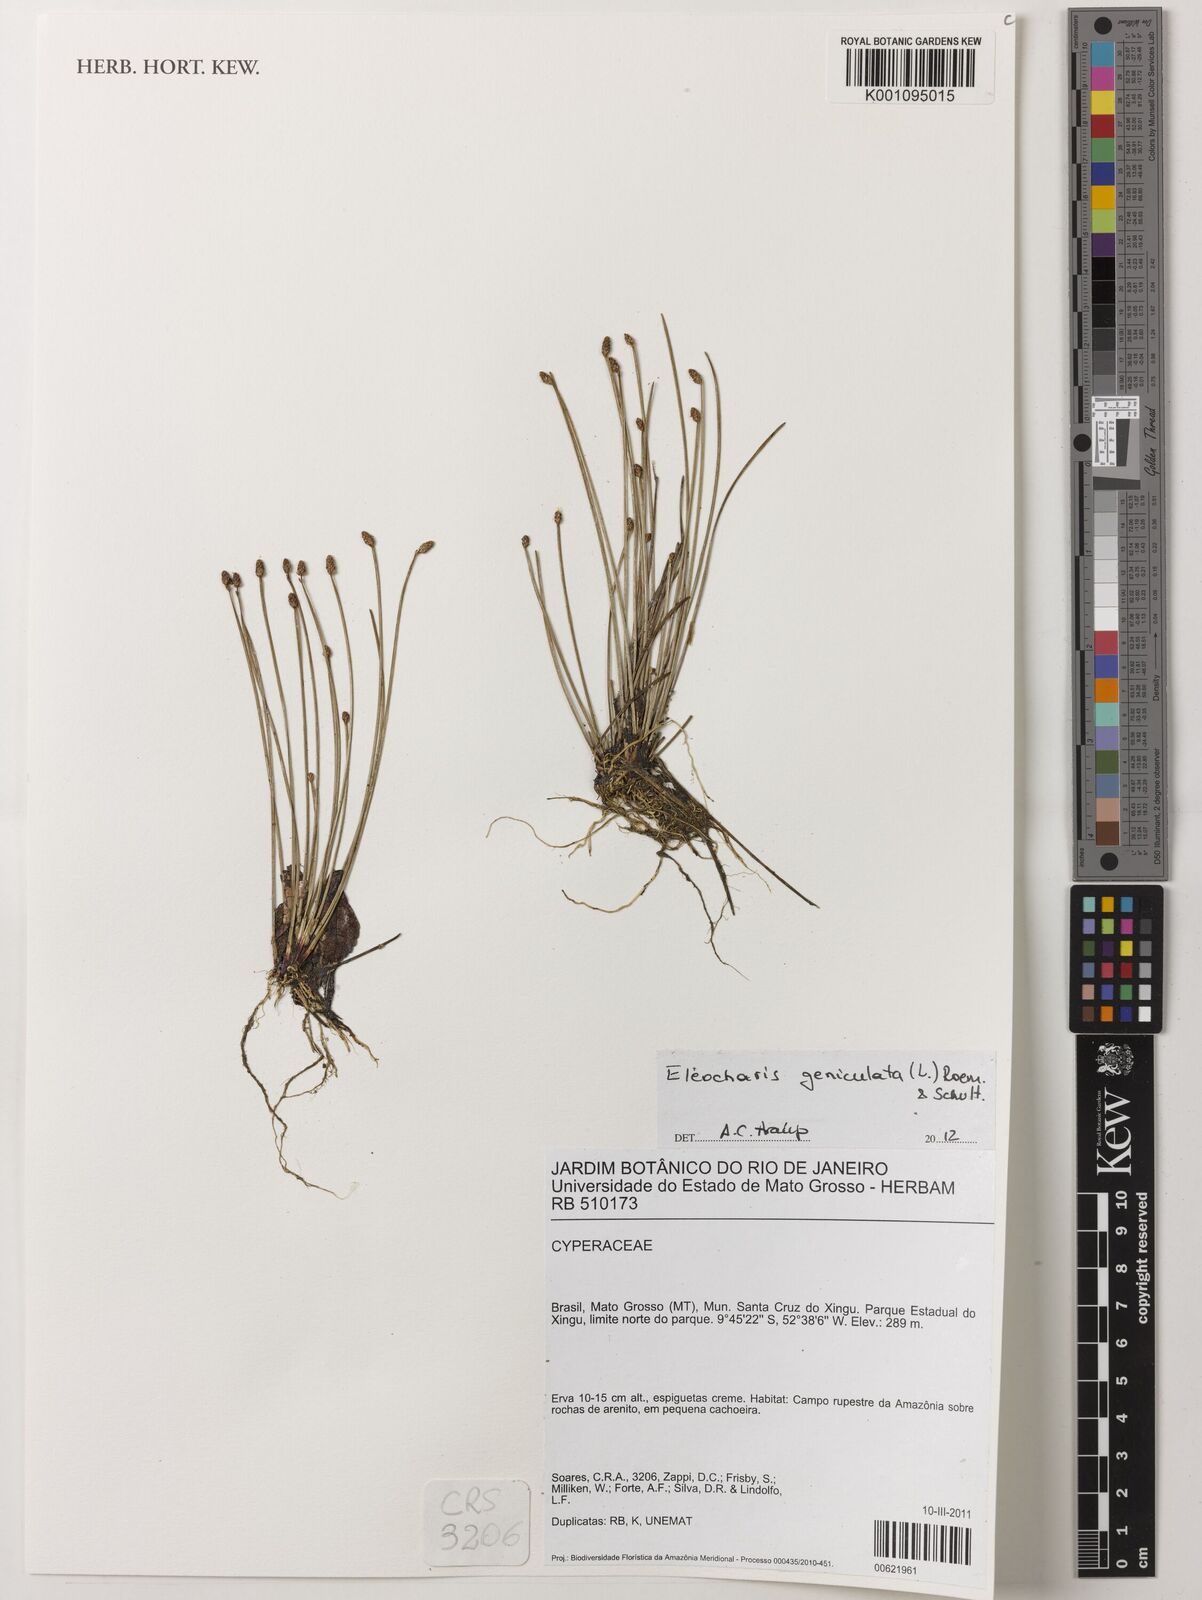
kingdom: Plantae
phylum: Tracheophyta
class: Liliopsida
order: Poales
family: Cyperaceae
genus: Eleocharis
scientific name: Eleocharis geniculata
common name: Canada spikesedge
